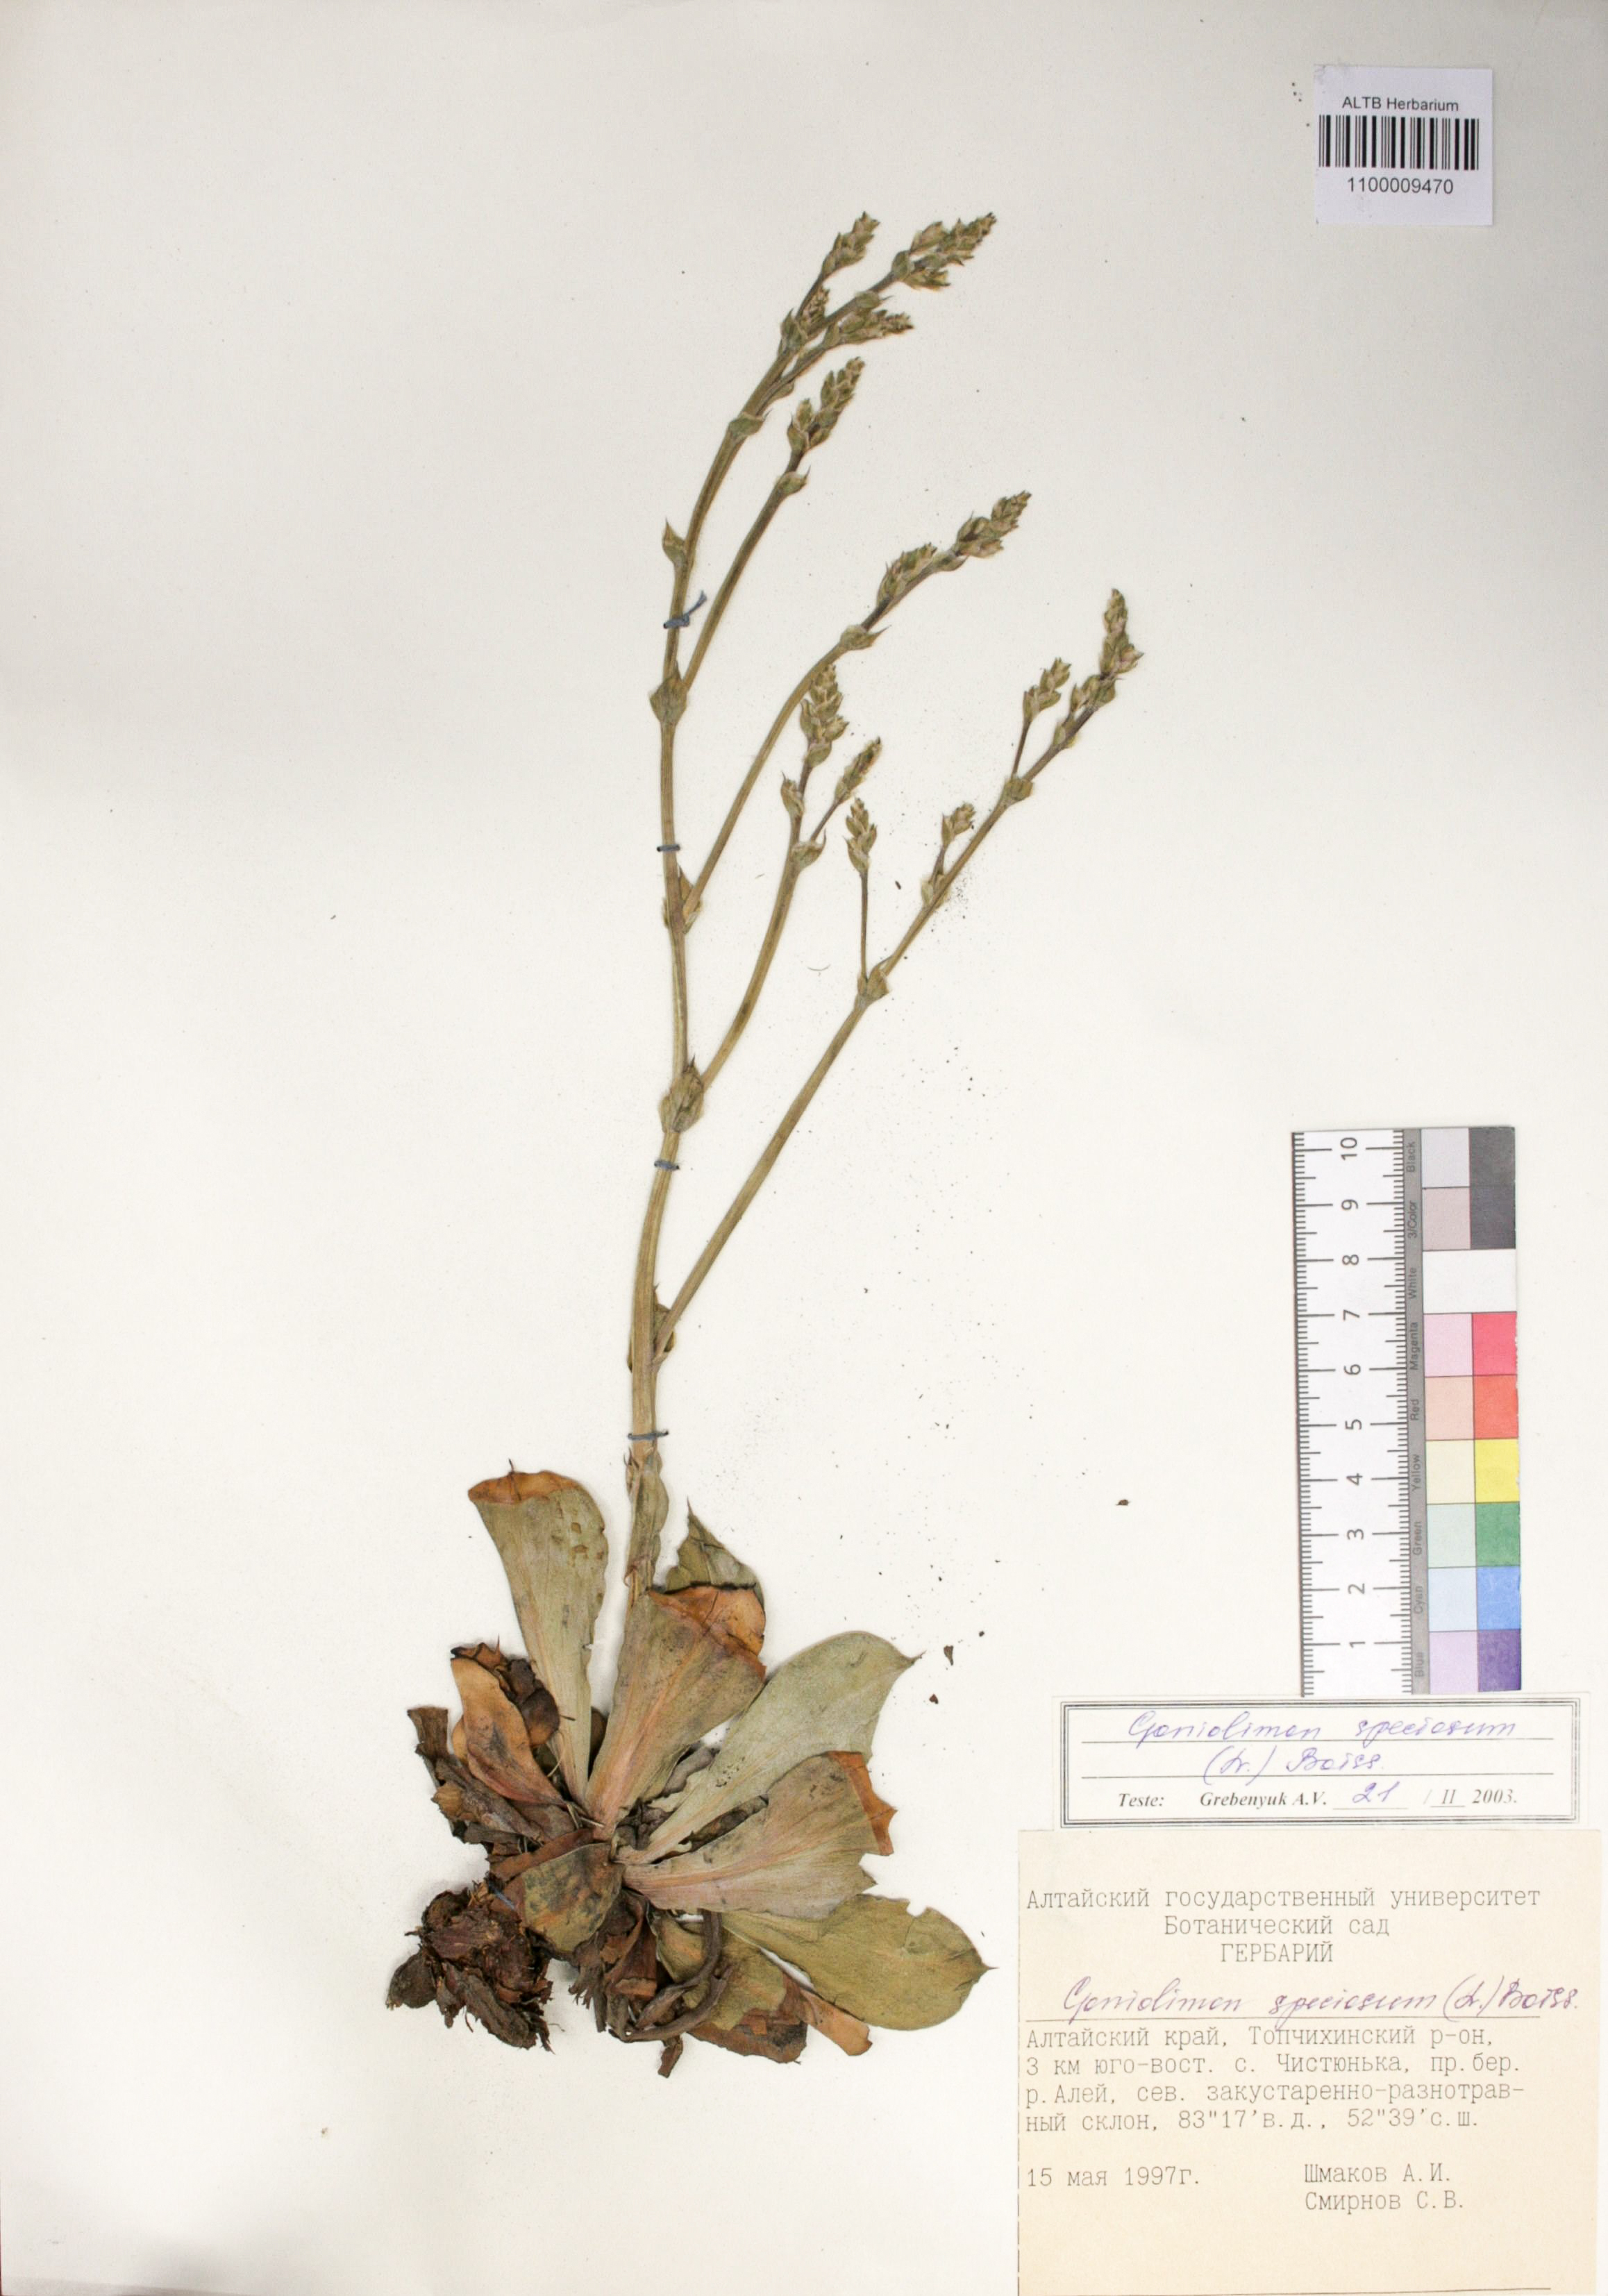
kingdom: Plantae
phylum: Tracheophyta
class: Magnoliopsida
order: Caryophyllales
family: Plumbaginaceae
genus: Goniolimon
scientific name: Goniolimon speciosum
